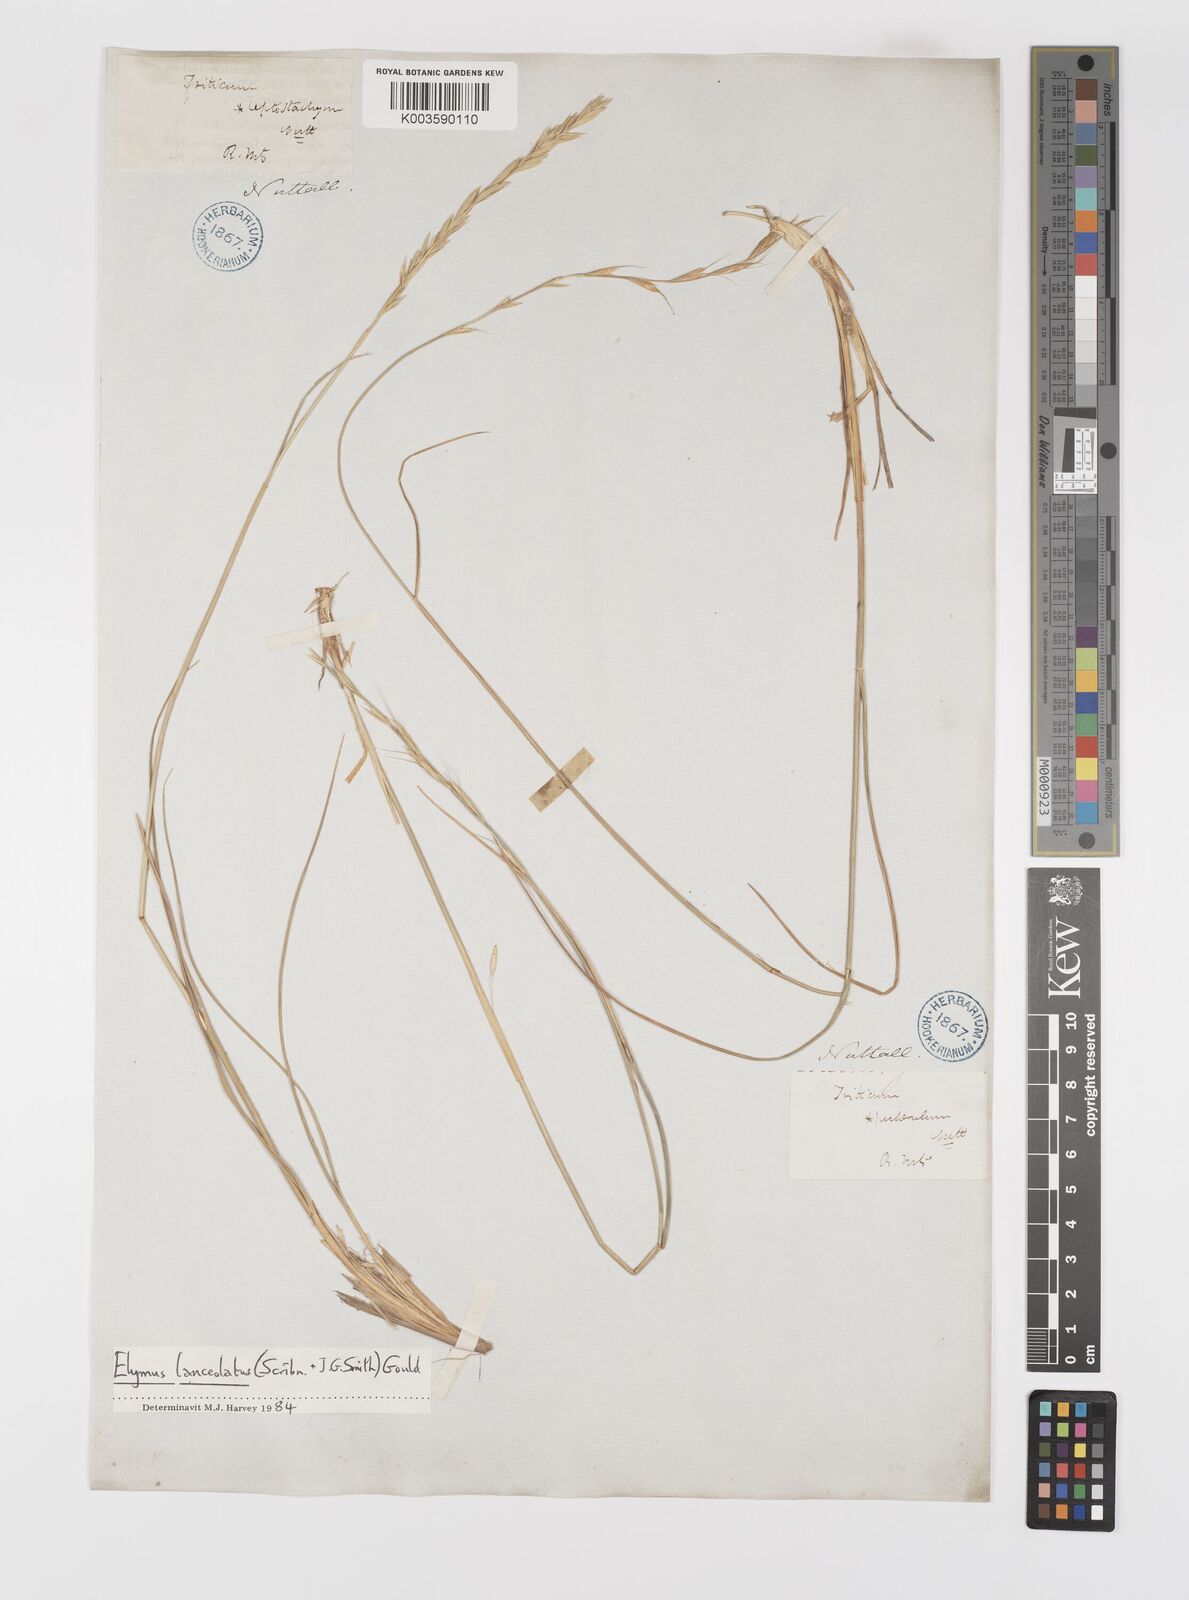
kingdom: Plantae
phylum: Tracheophyta
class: Liliopsida
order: Poales
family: Poaceae
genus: Elymus
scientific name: Elymus repens
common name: Quackgrass
